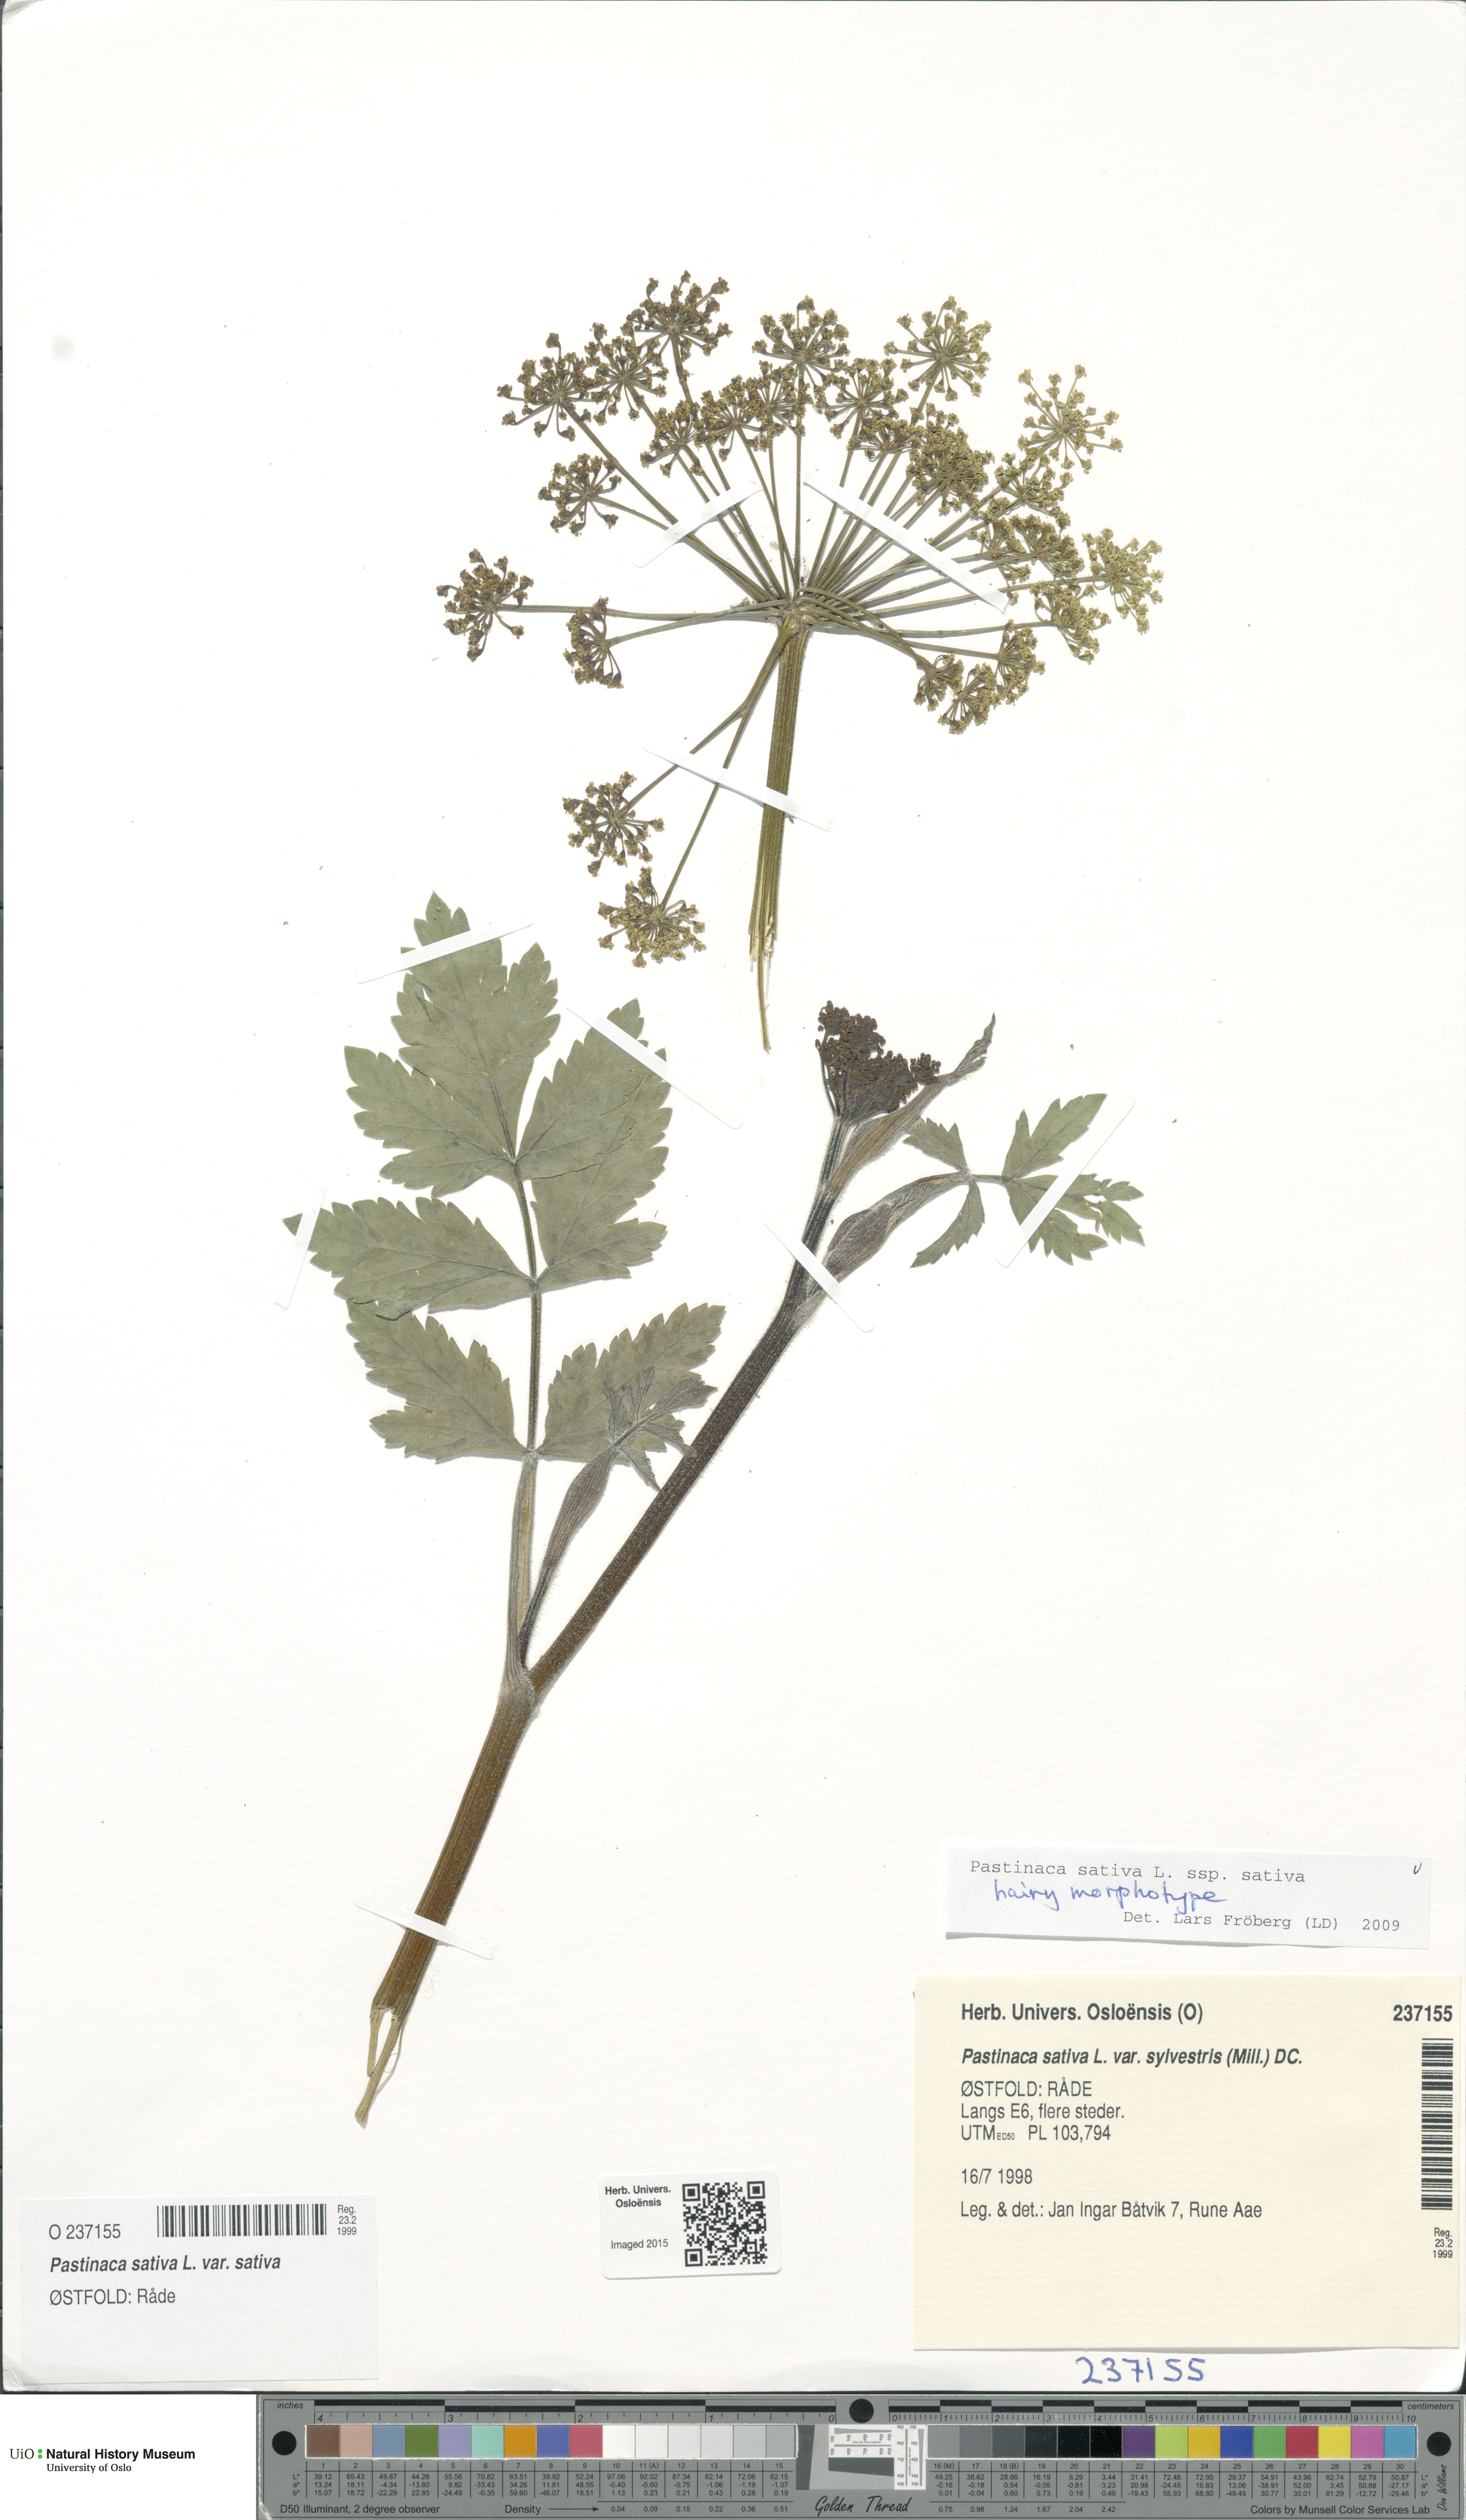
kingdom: Plantae
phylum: Tracheophyta
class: Magnoliopsida
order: Apiales
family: Apiaceae
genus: Pastinaca
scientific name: Pastinaca sativa
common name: Wild parsnip
